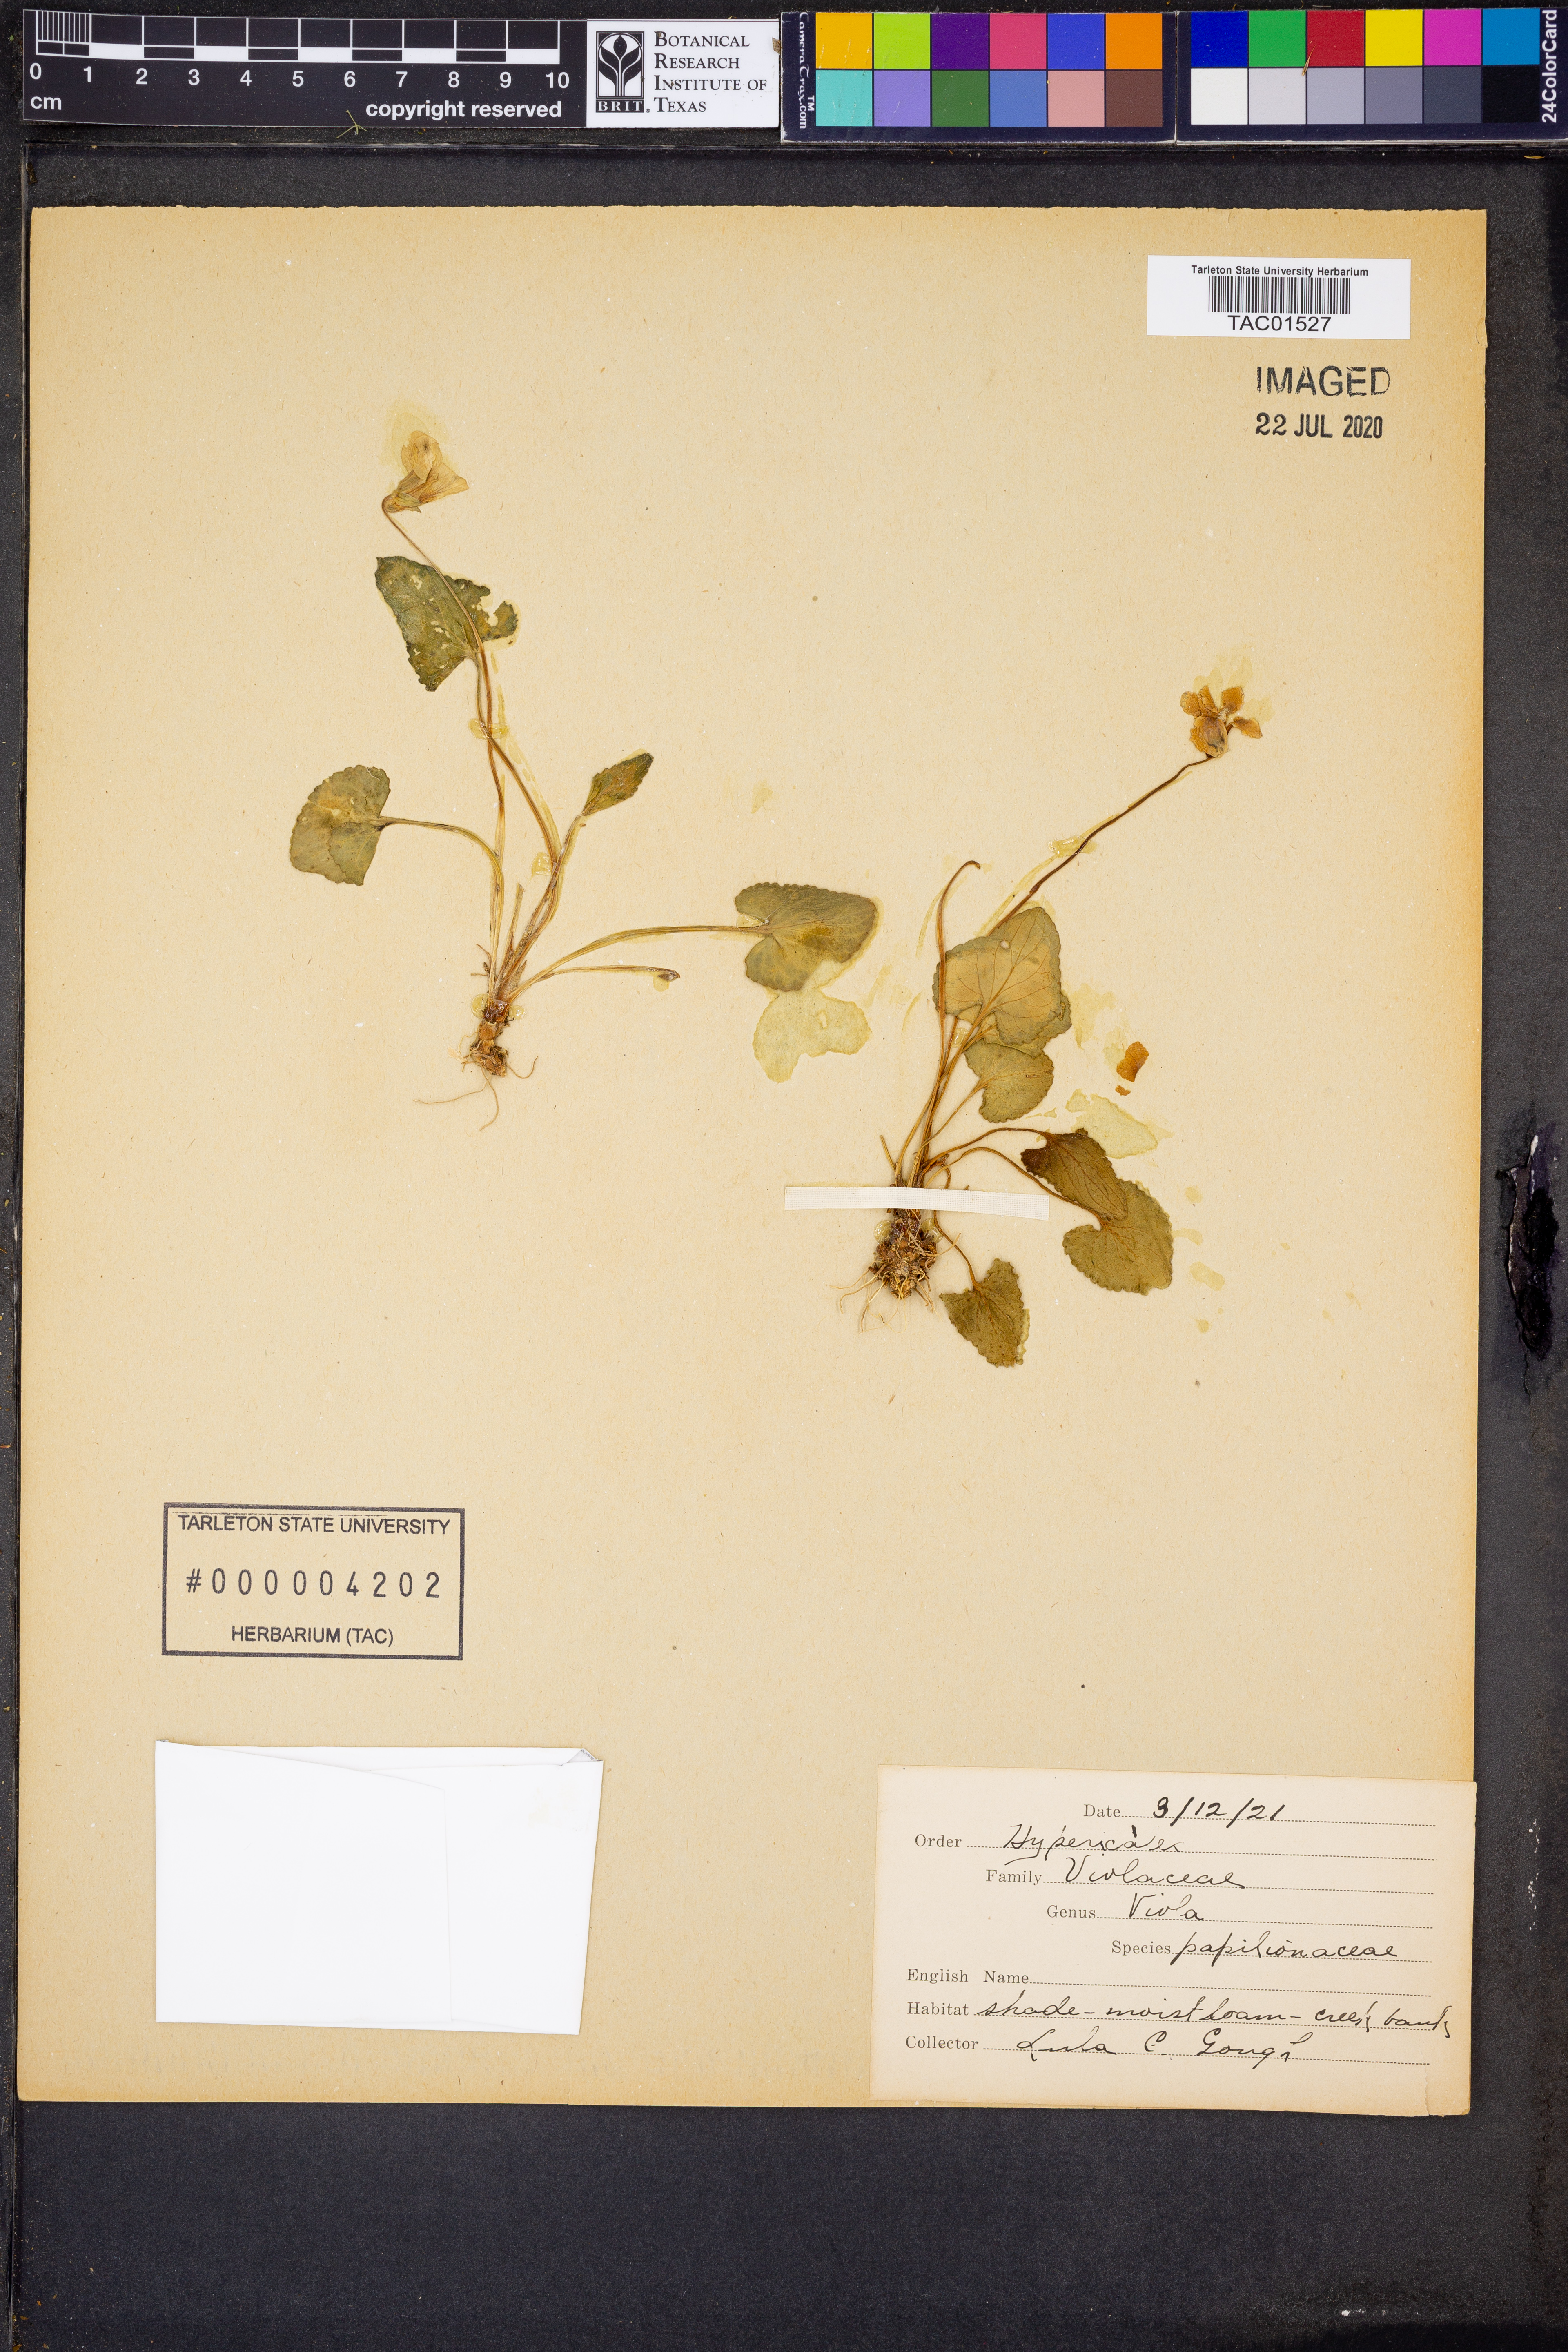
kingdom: Plantae
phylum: Tracheophyta
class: Magnoliopsida
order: Malpighiales
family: Violaceae
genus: Viola
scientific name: Viola sororia
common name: Dooryard violet
